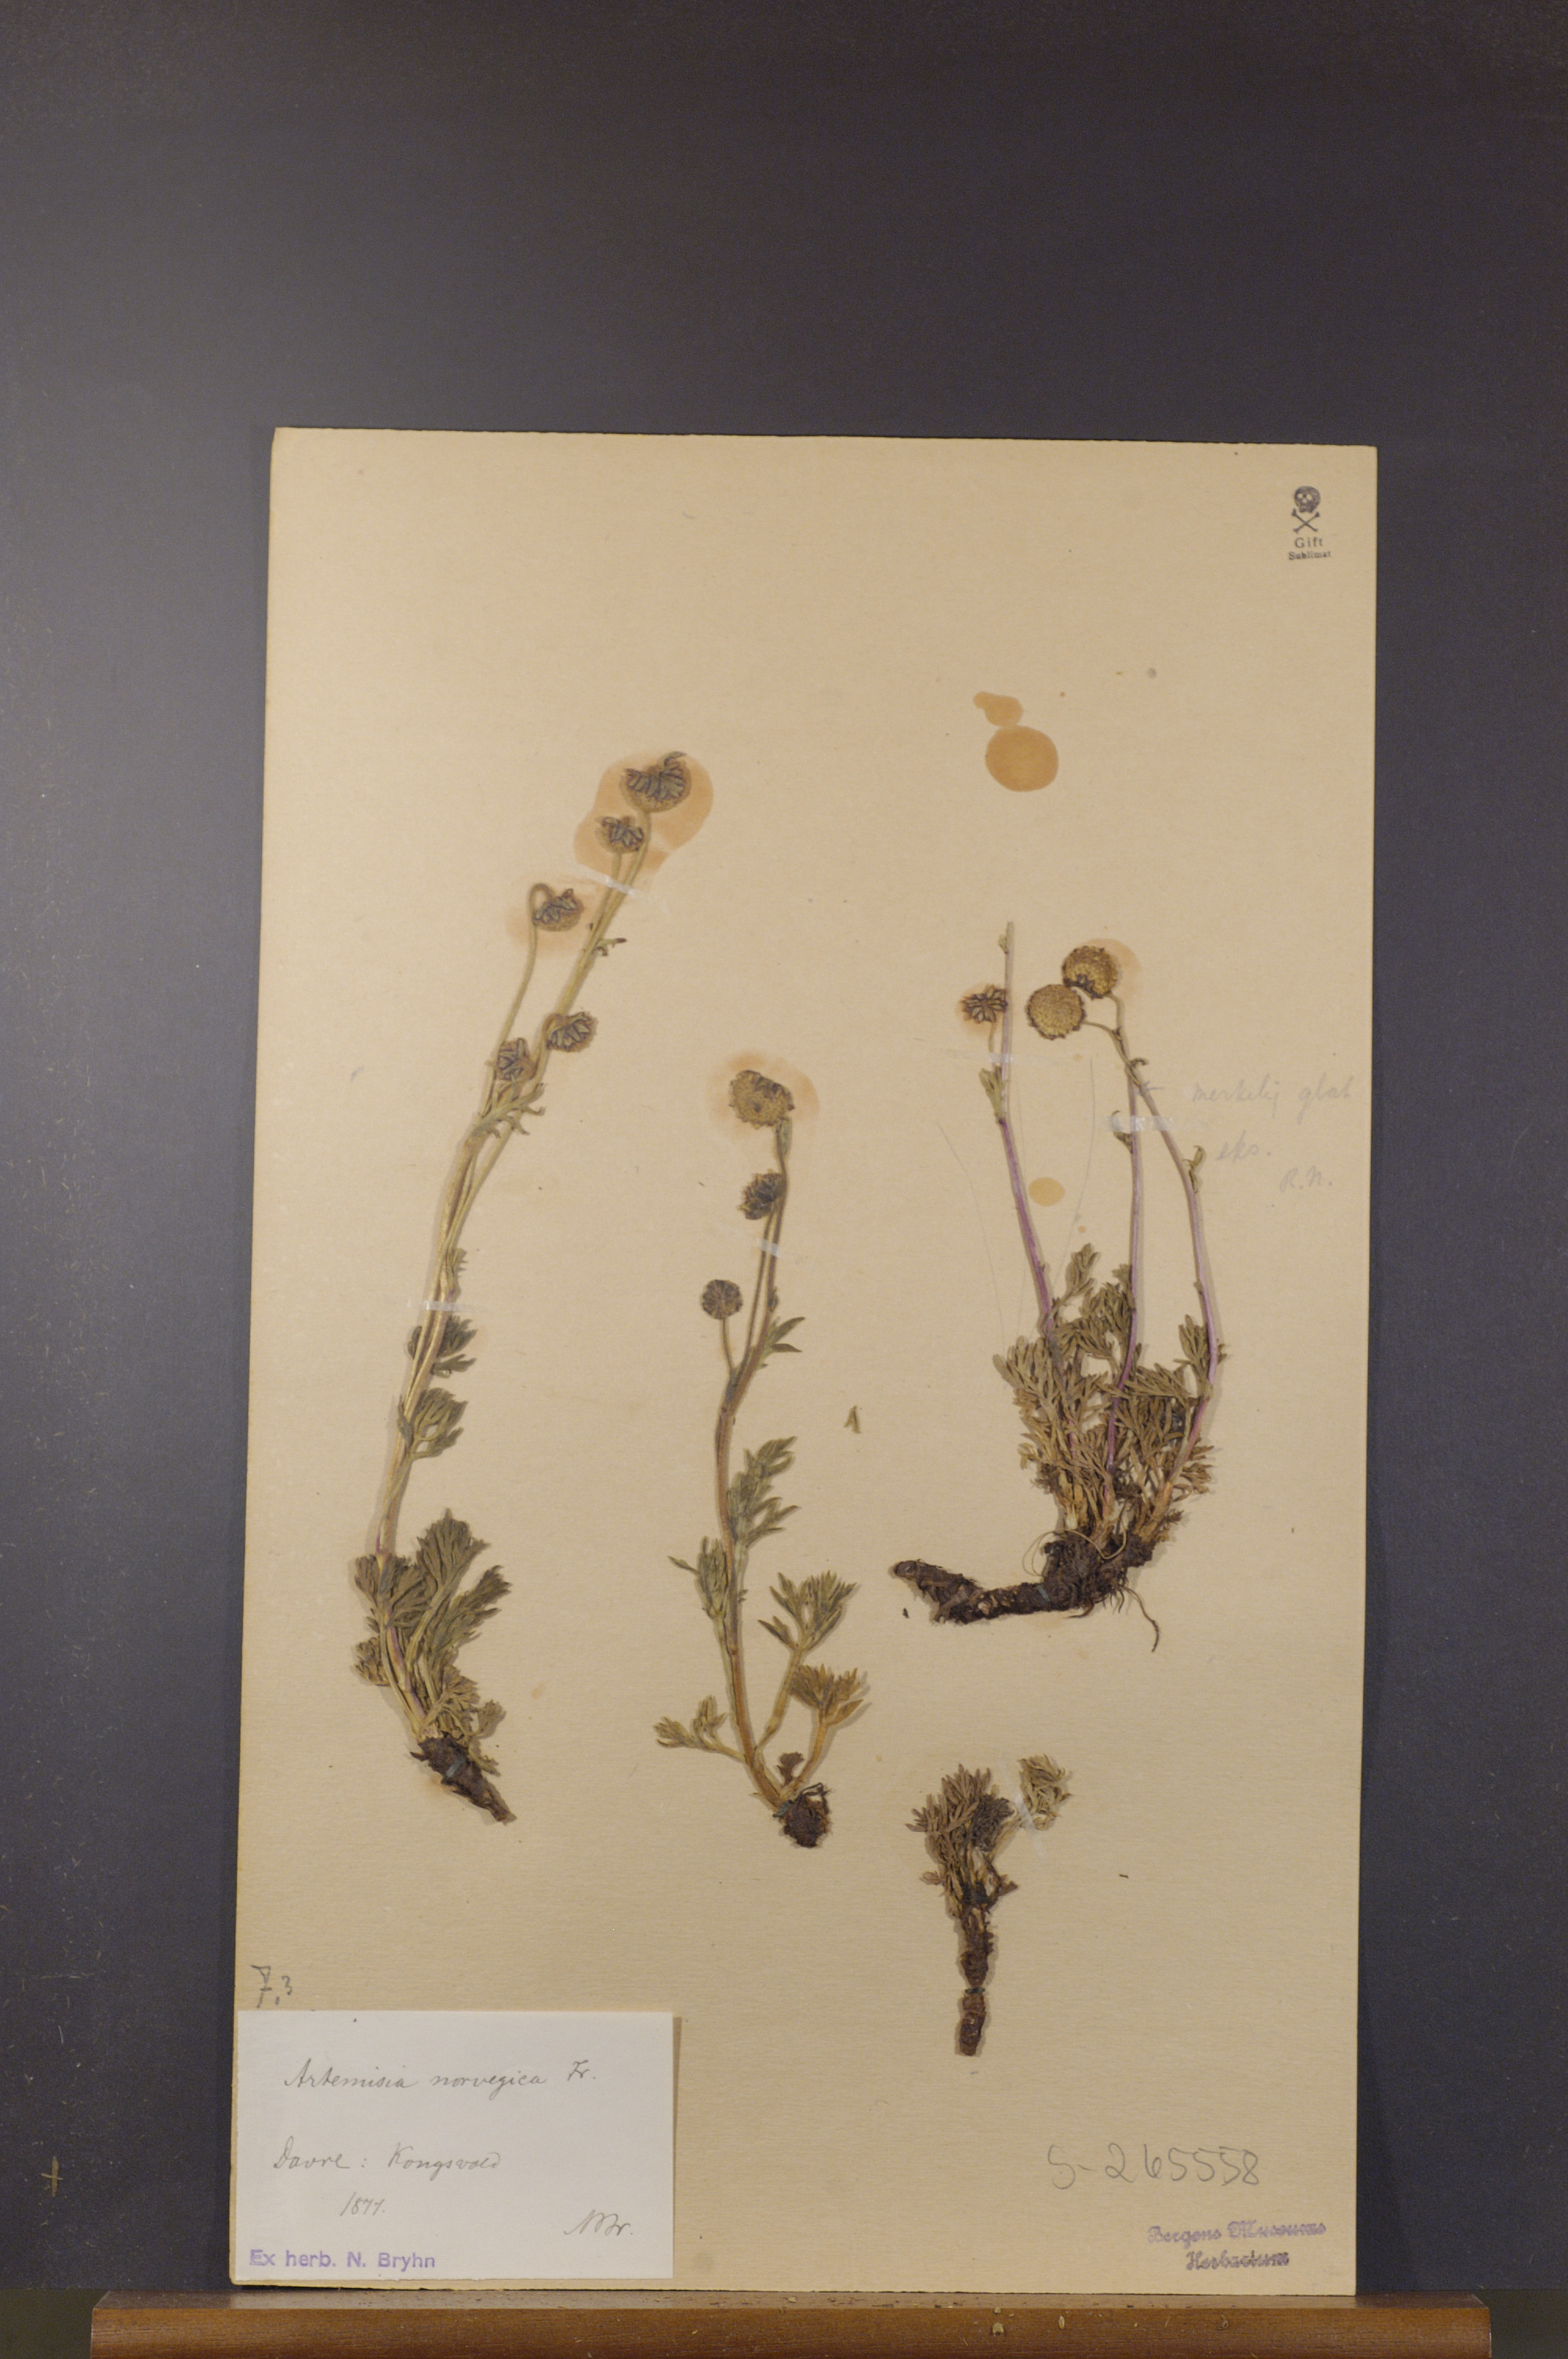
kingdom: Plantae
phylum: Tracheophyta
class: Magnoliopsida
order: Asterales
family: Asteraceae
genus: Artemisia
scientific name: Artemisia norvegica
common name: Norwegian mugwort
